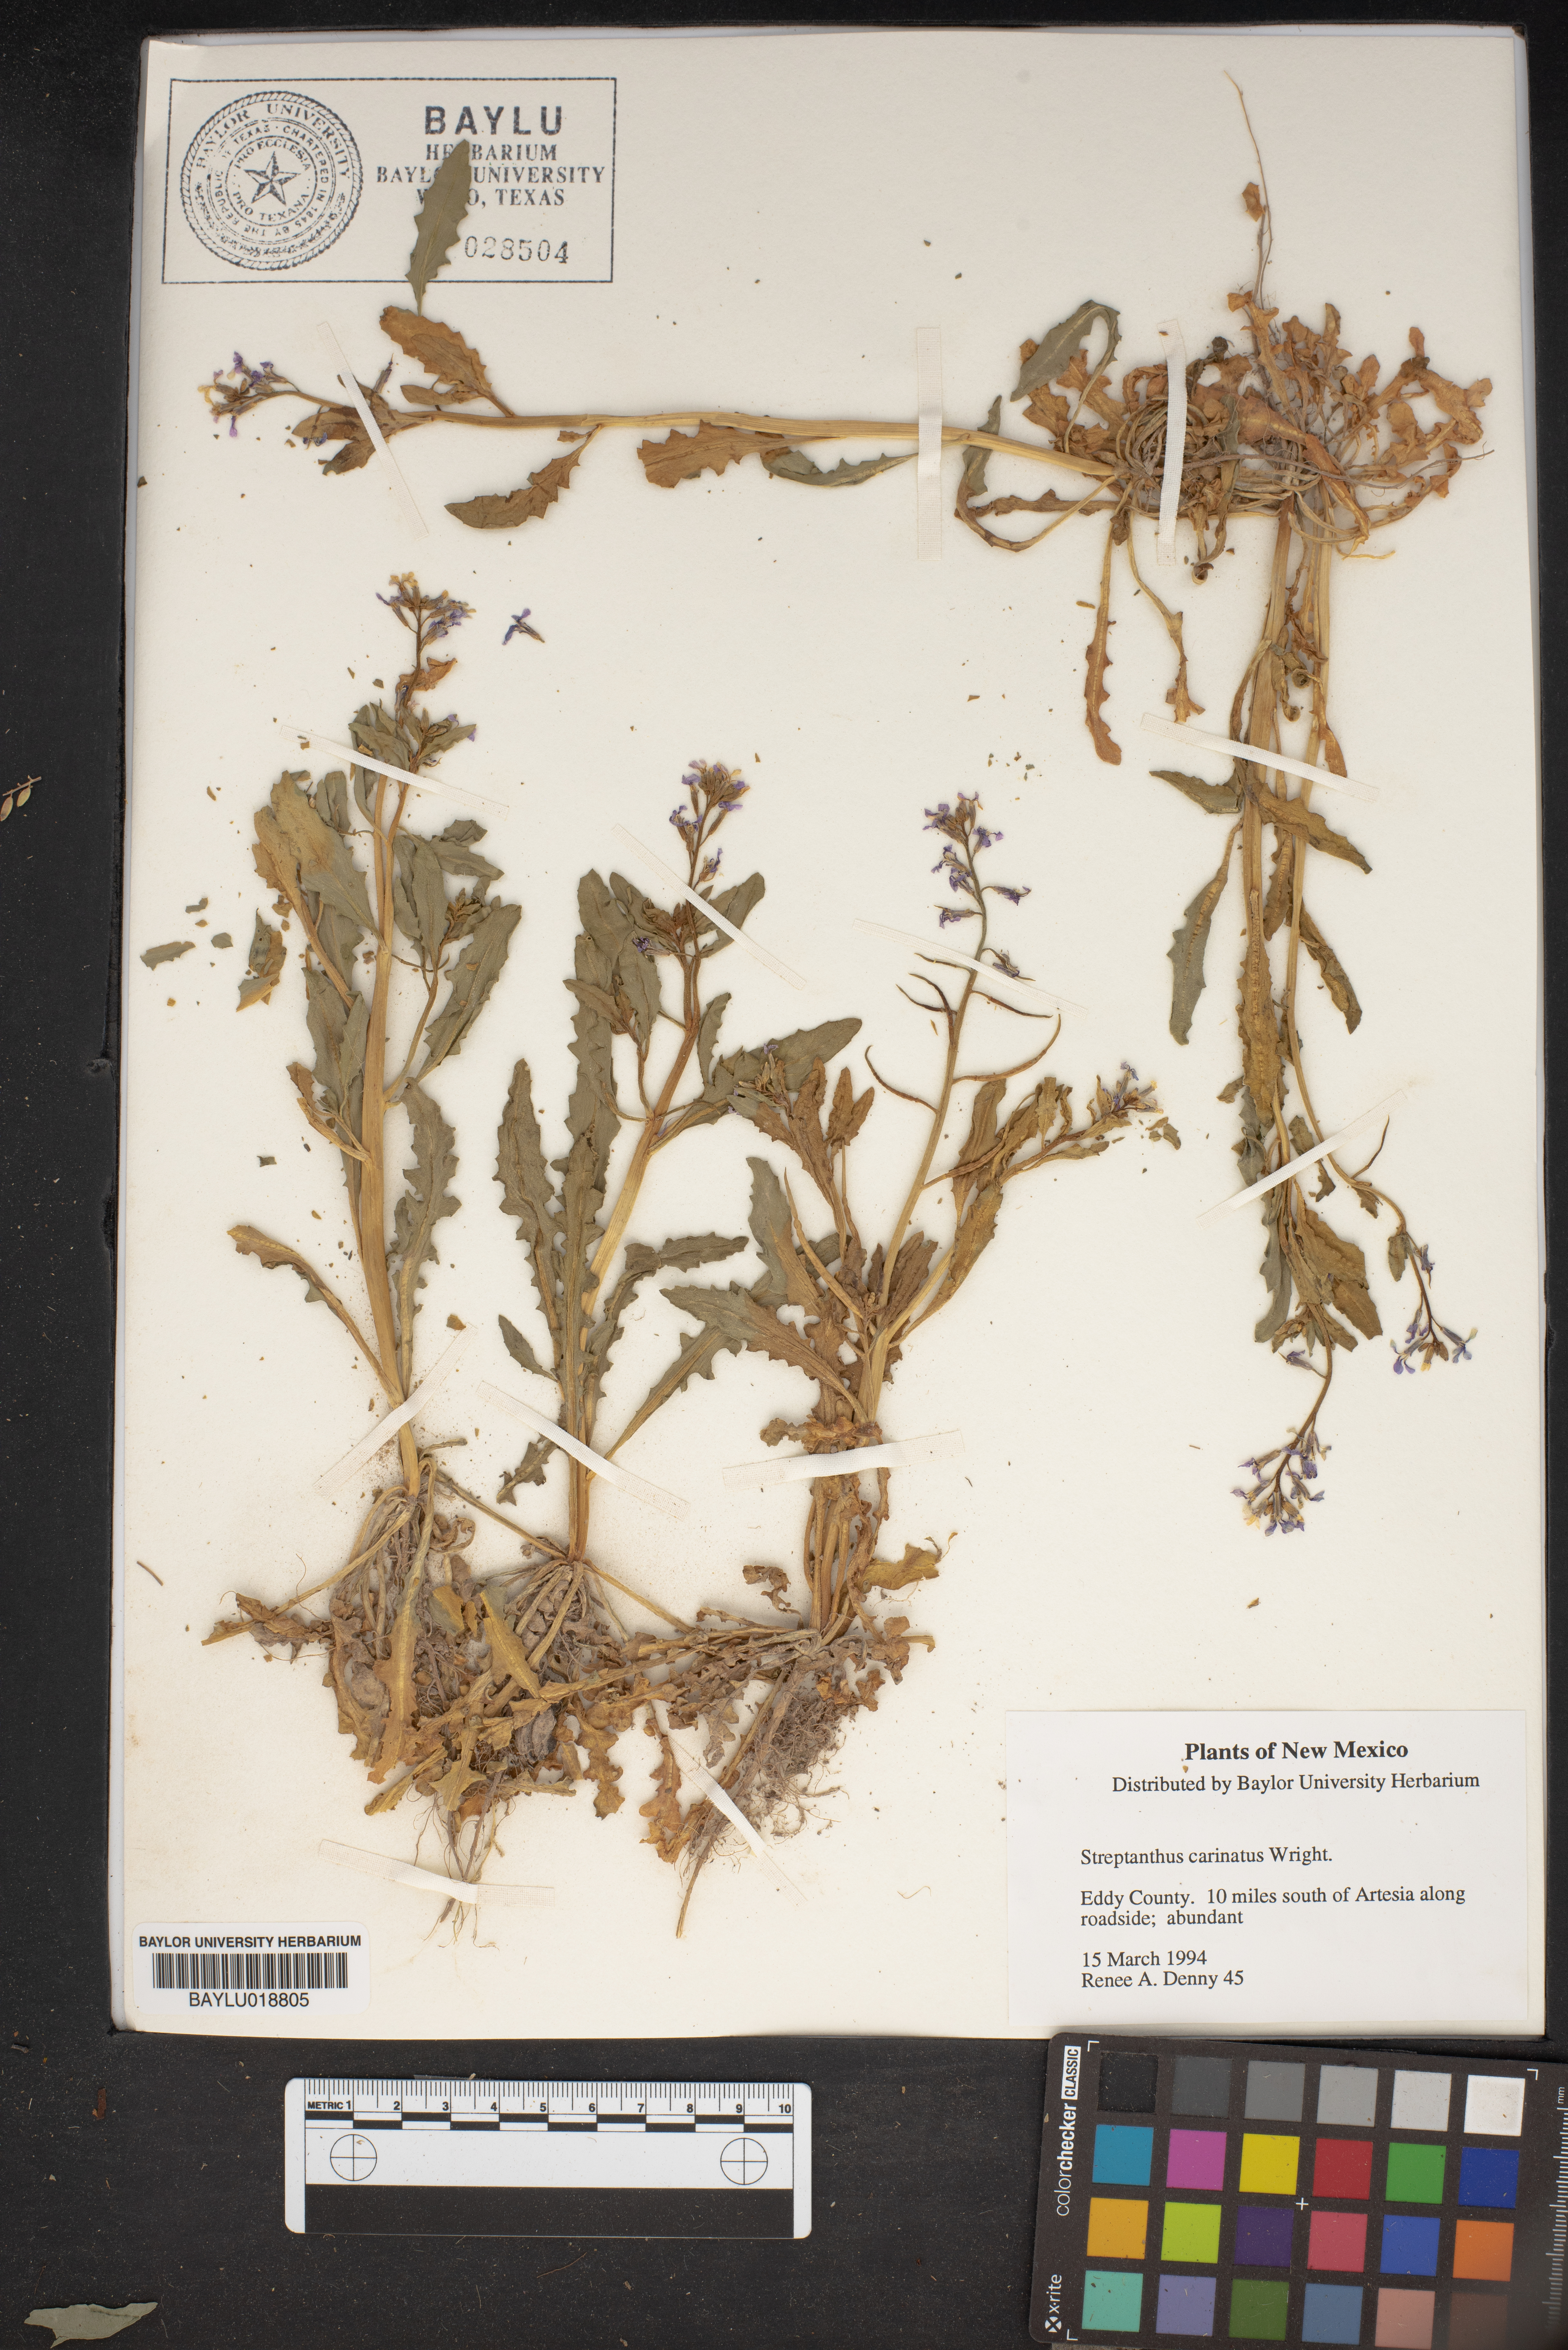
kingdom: Plantae
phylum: Tracheophyta
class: Magnoliopsida
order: Brassicales
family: Brassicaceae
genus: Streptanthus
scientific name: Streptanthus carinatus
